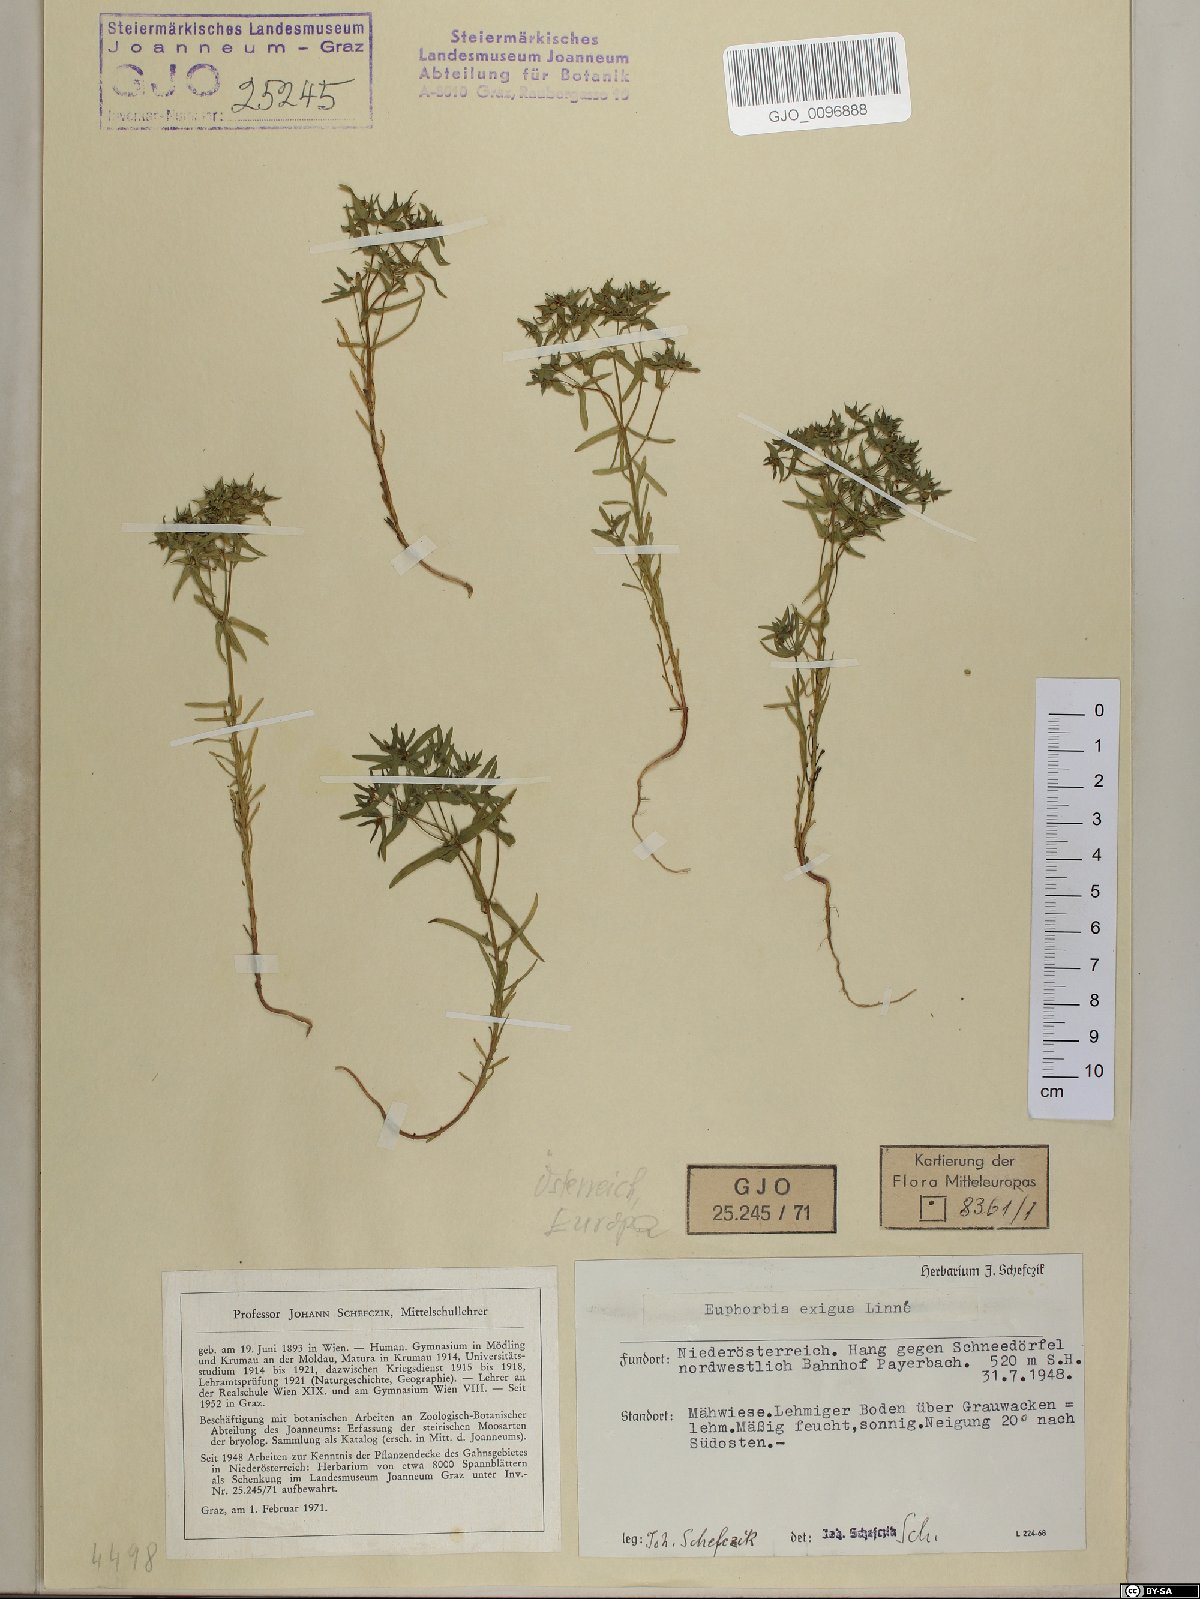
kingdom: Plantae
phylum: Tracheophyta
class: Magnoliopsida
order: Malpighiales
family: Euphorbiaceae
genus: Euphorbia
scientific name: Euphorbia exigua
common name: Dwarf spurge
